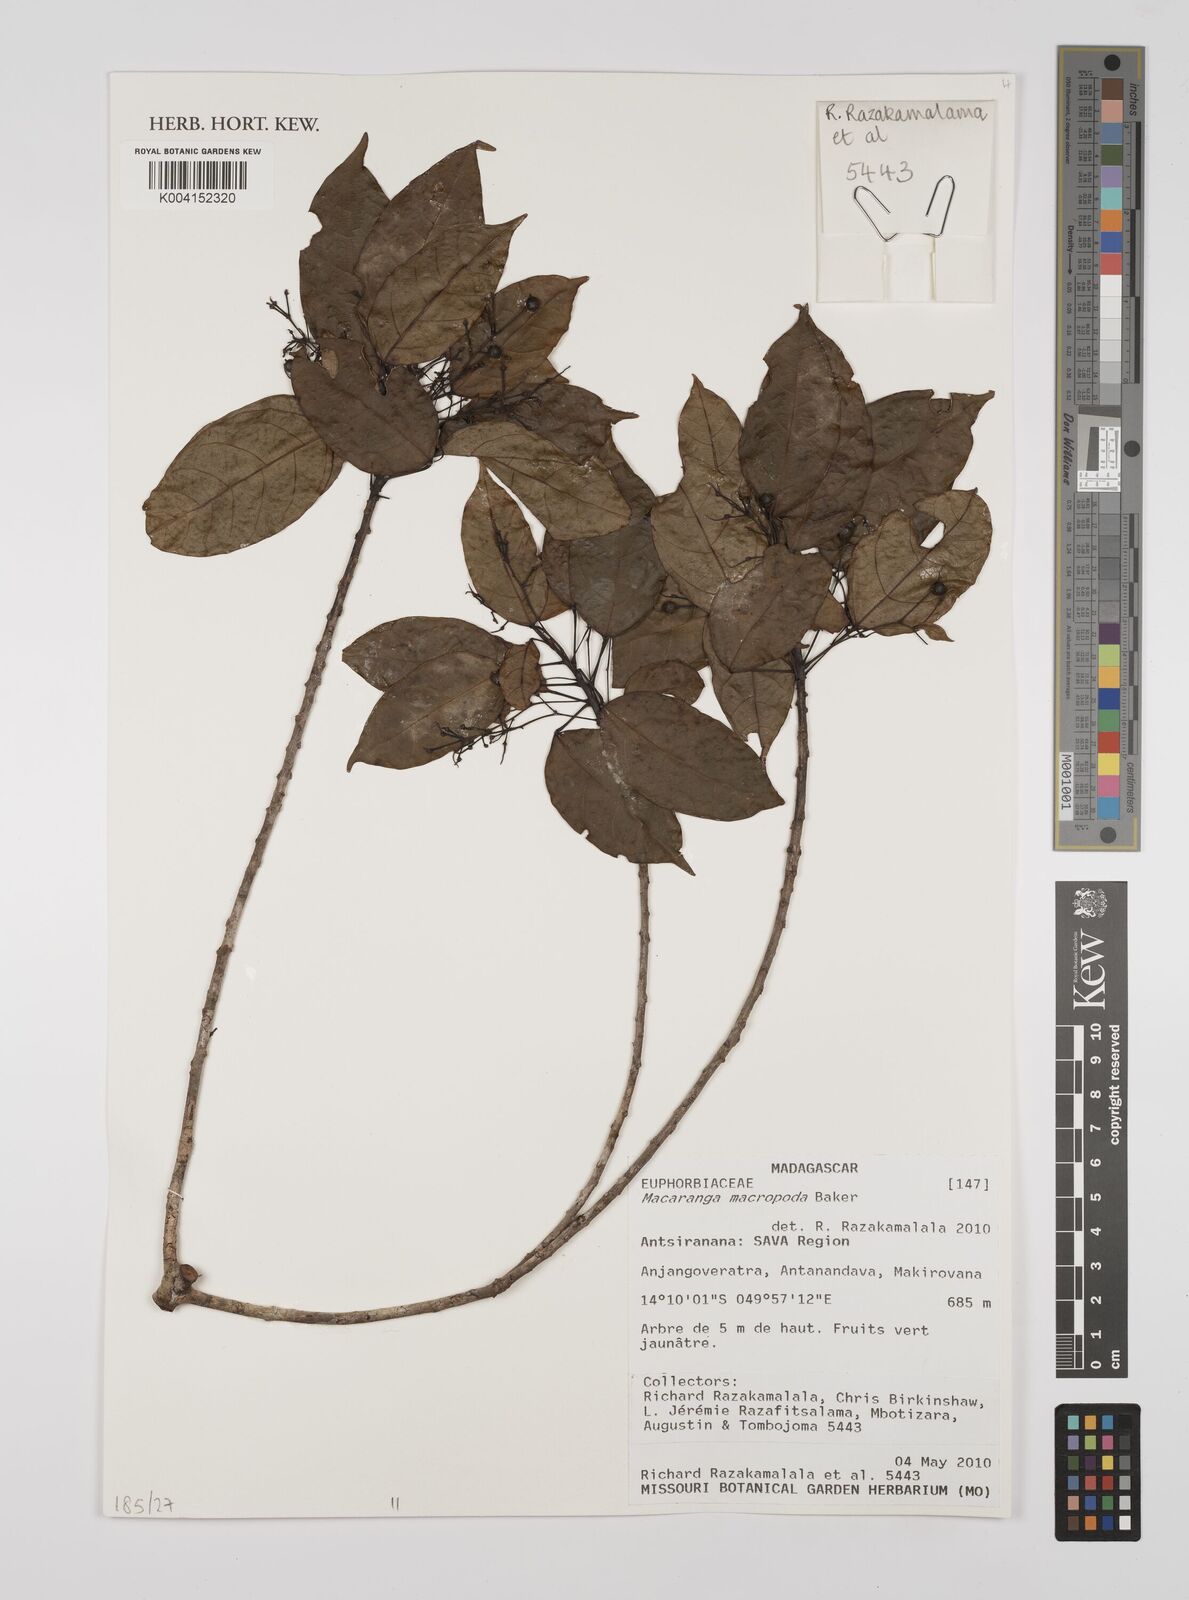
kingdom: Plantae
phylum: Tracheophyta
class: Magnoliopsida
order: Malpighiales
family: Euphorbiaceae
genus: Macaranga
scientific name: Macaranga macropoda
